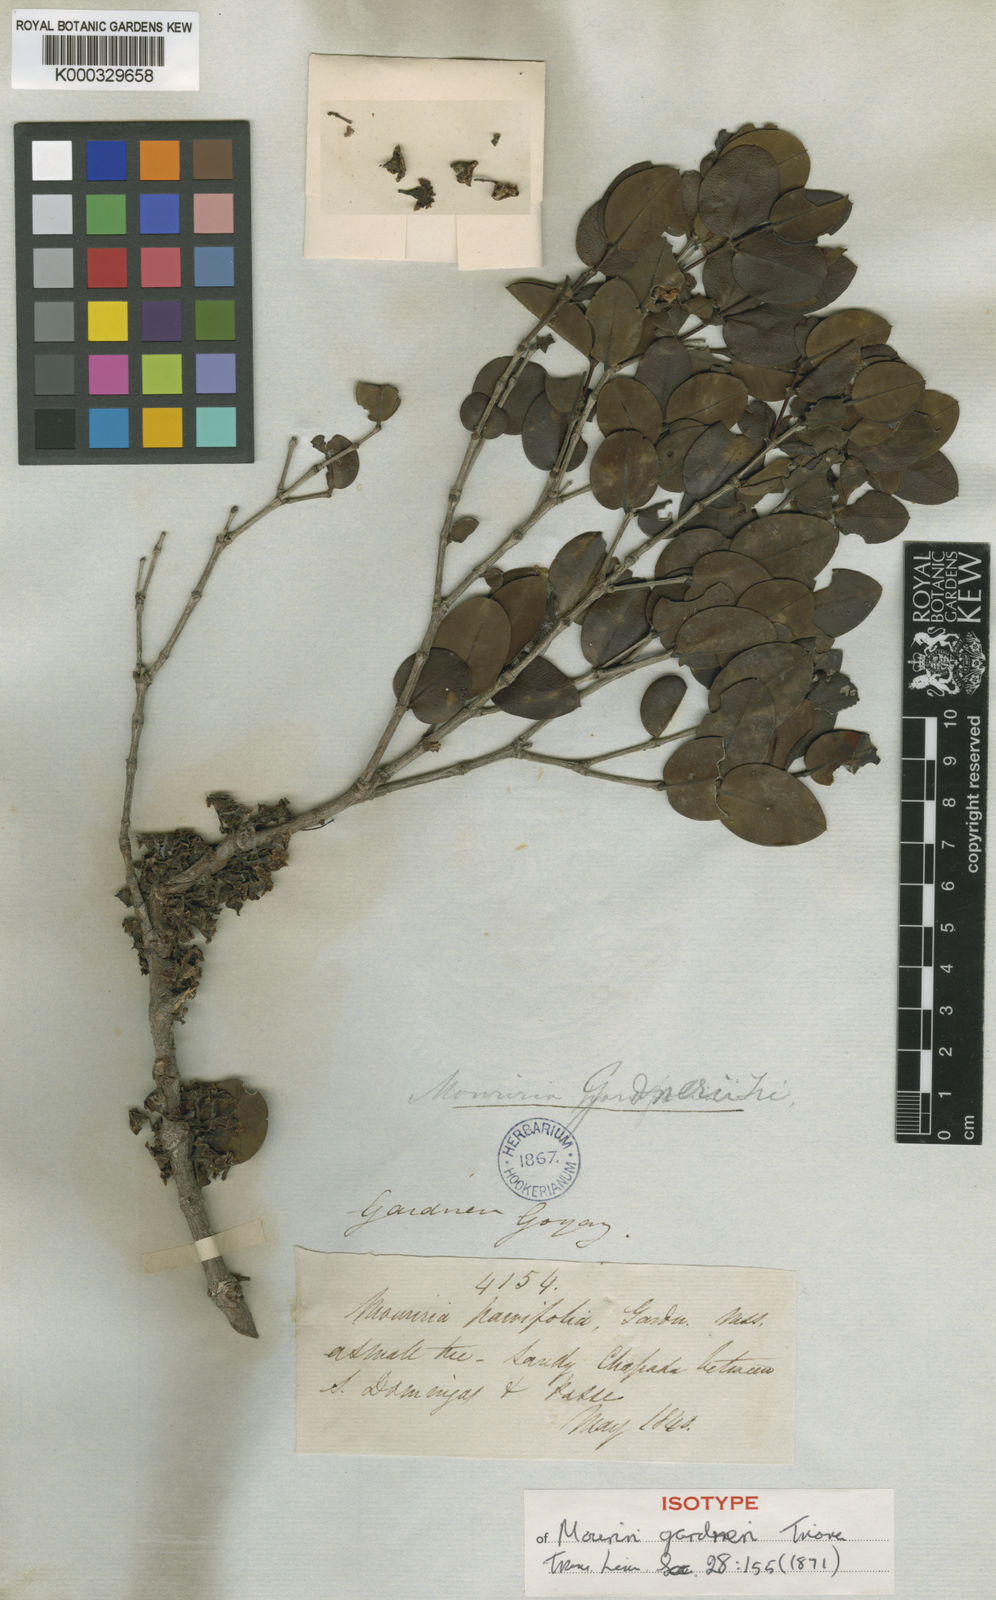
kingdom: Plantae
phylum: Tracheophyta
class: Magnoliopsida
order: Myrtales
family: Melastomataceae
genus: Mouriri
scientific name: Mouriri gardneri
